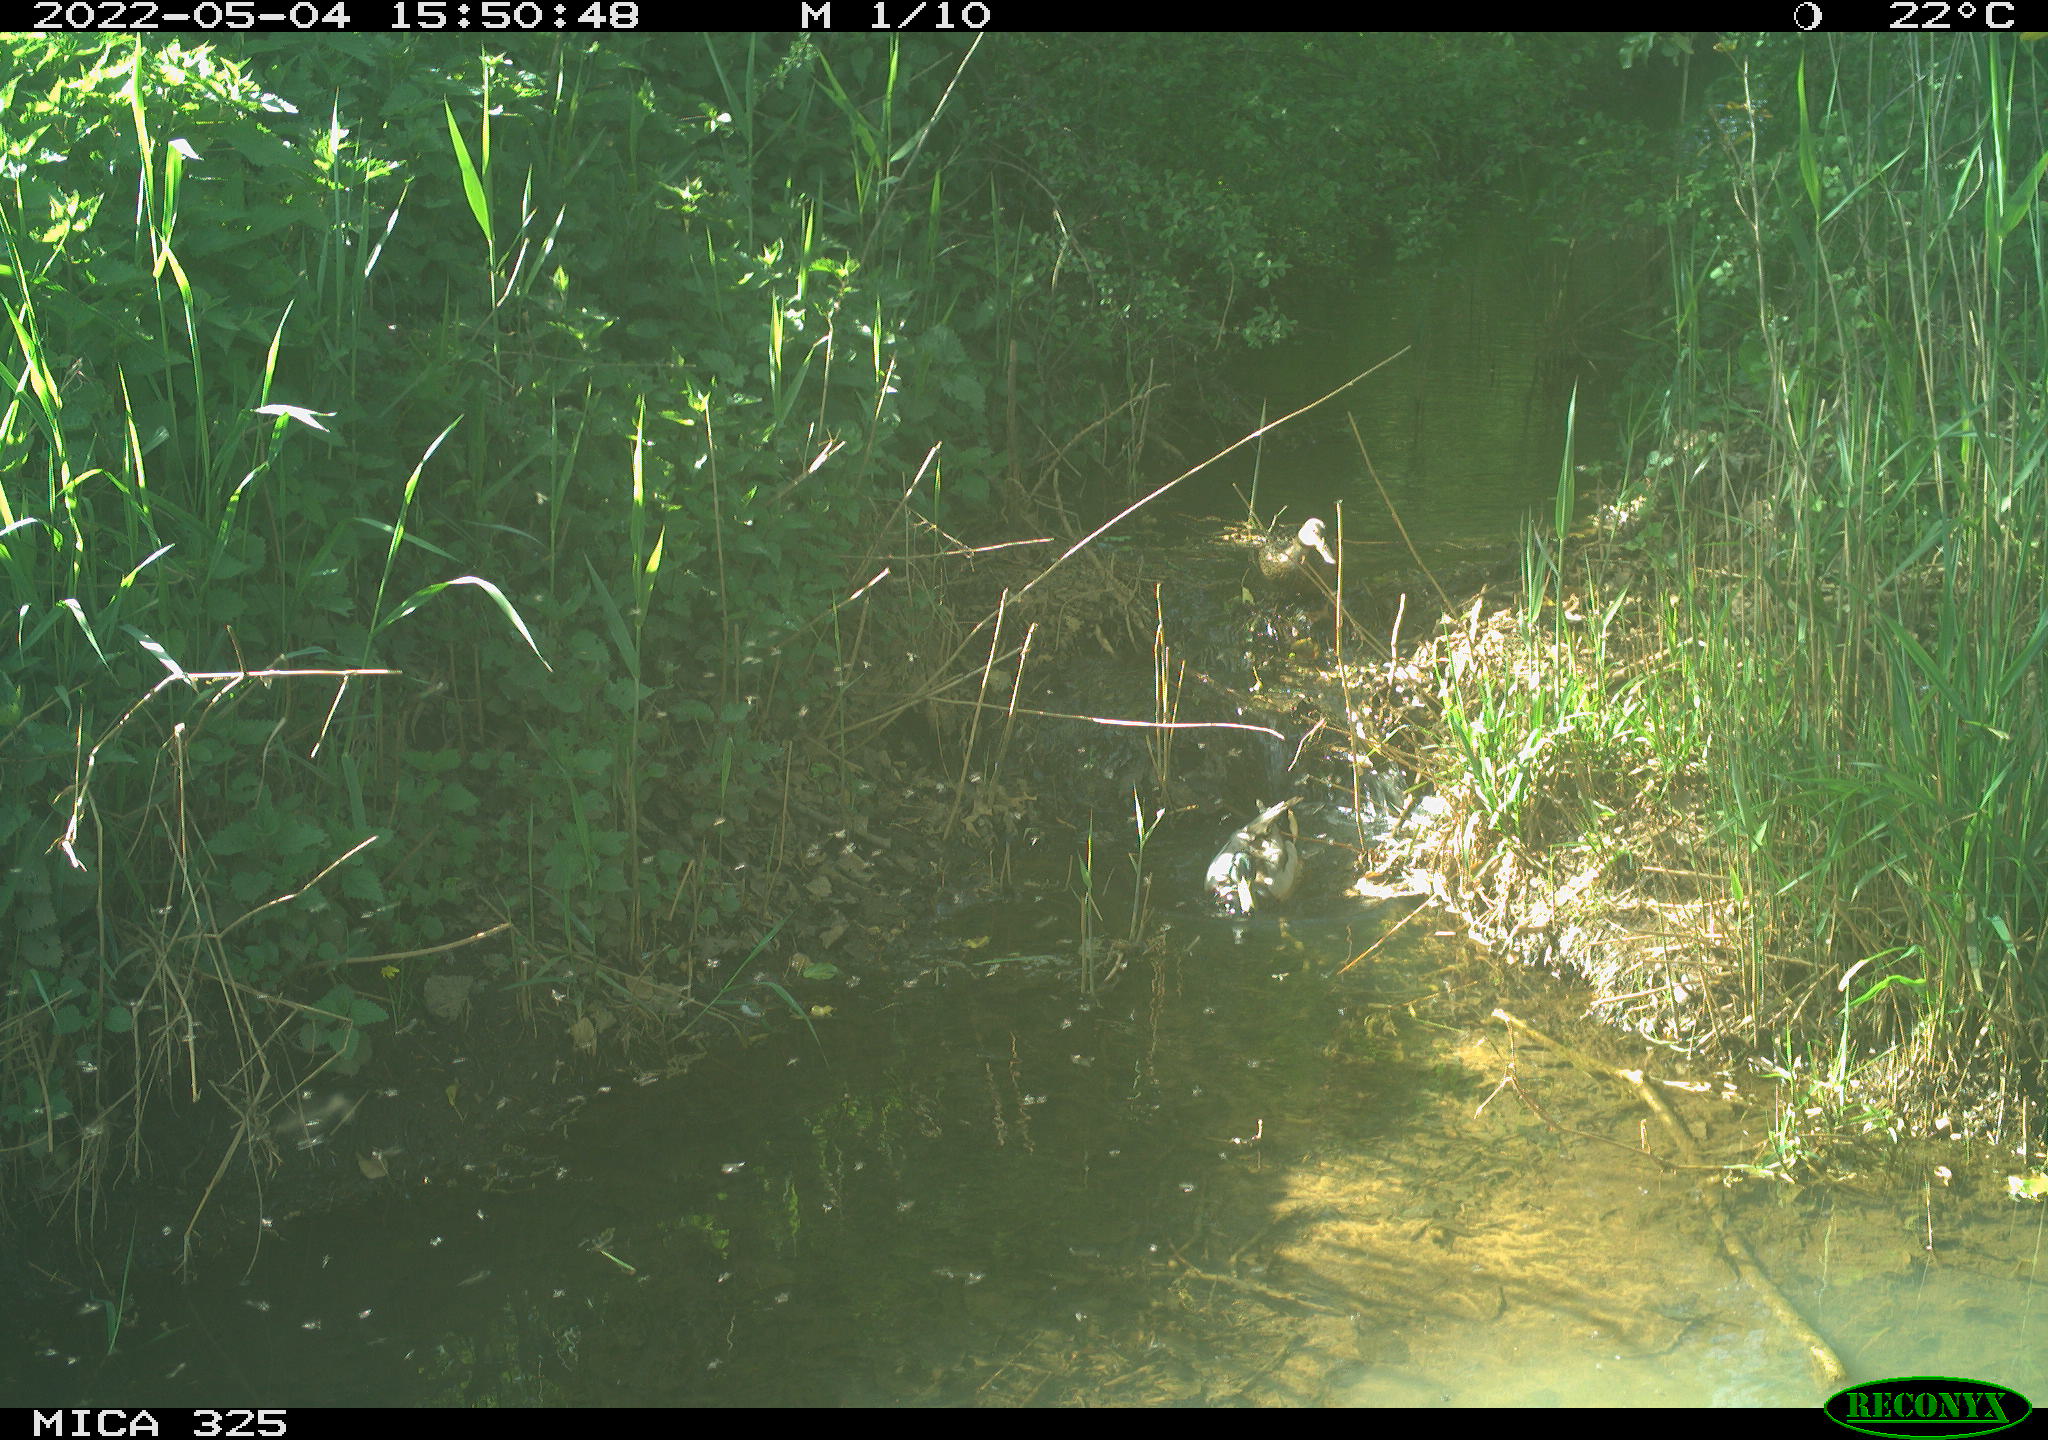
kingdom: Animalia
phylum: Chordata
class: Aves
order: Anseriformes
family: Anatidae
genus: Anas
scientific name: Anas platyrhynchos
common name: Mallard
